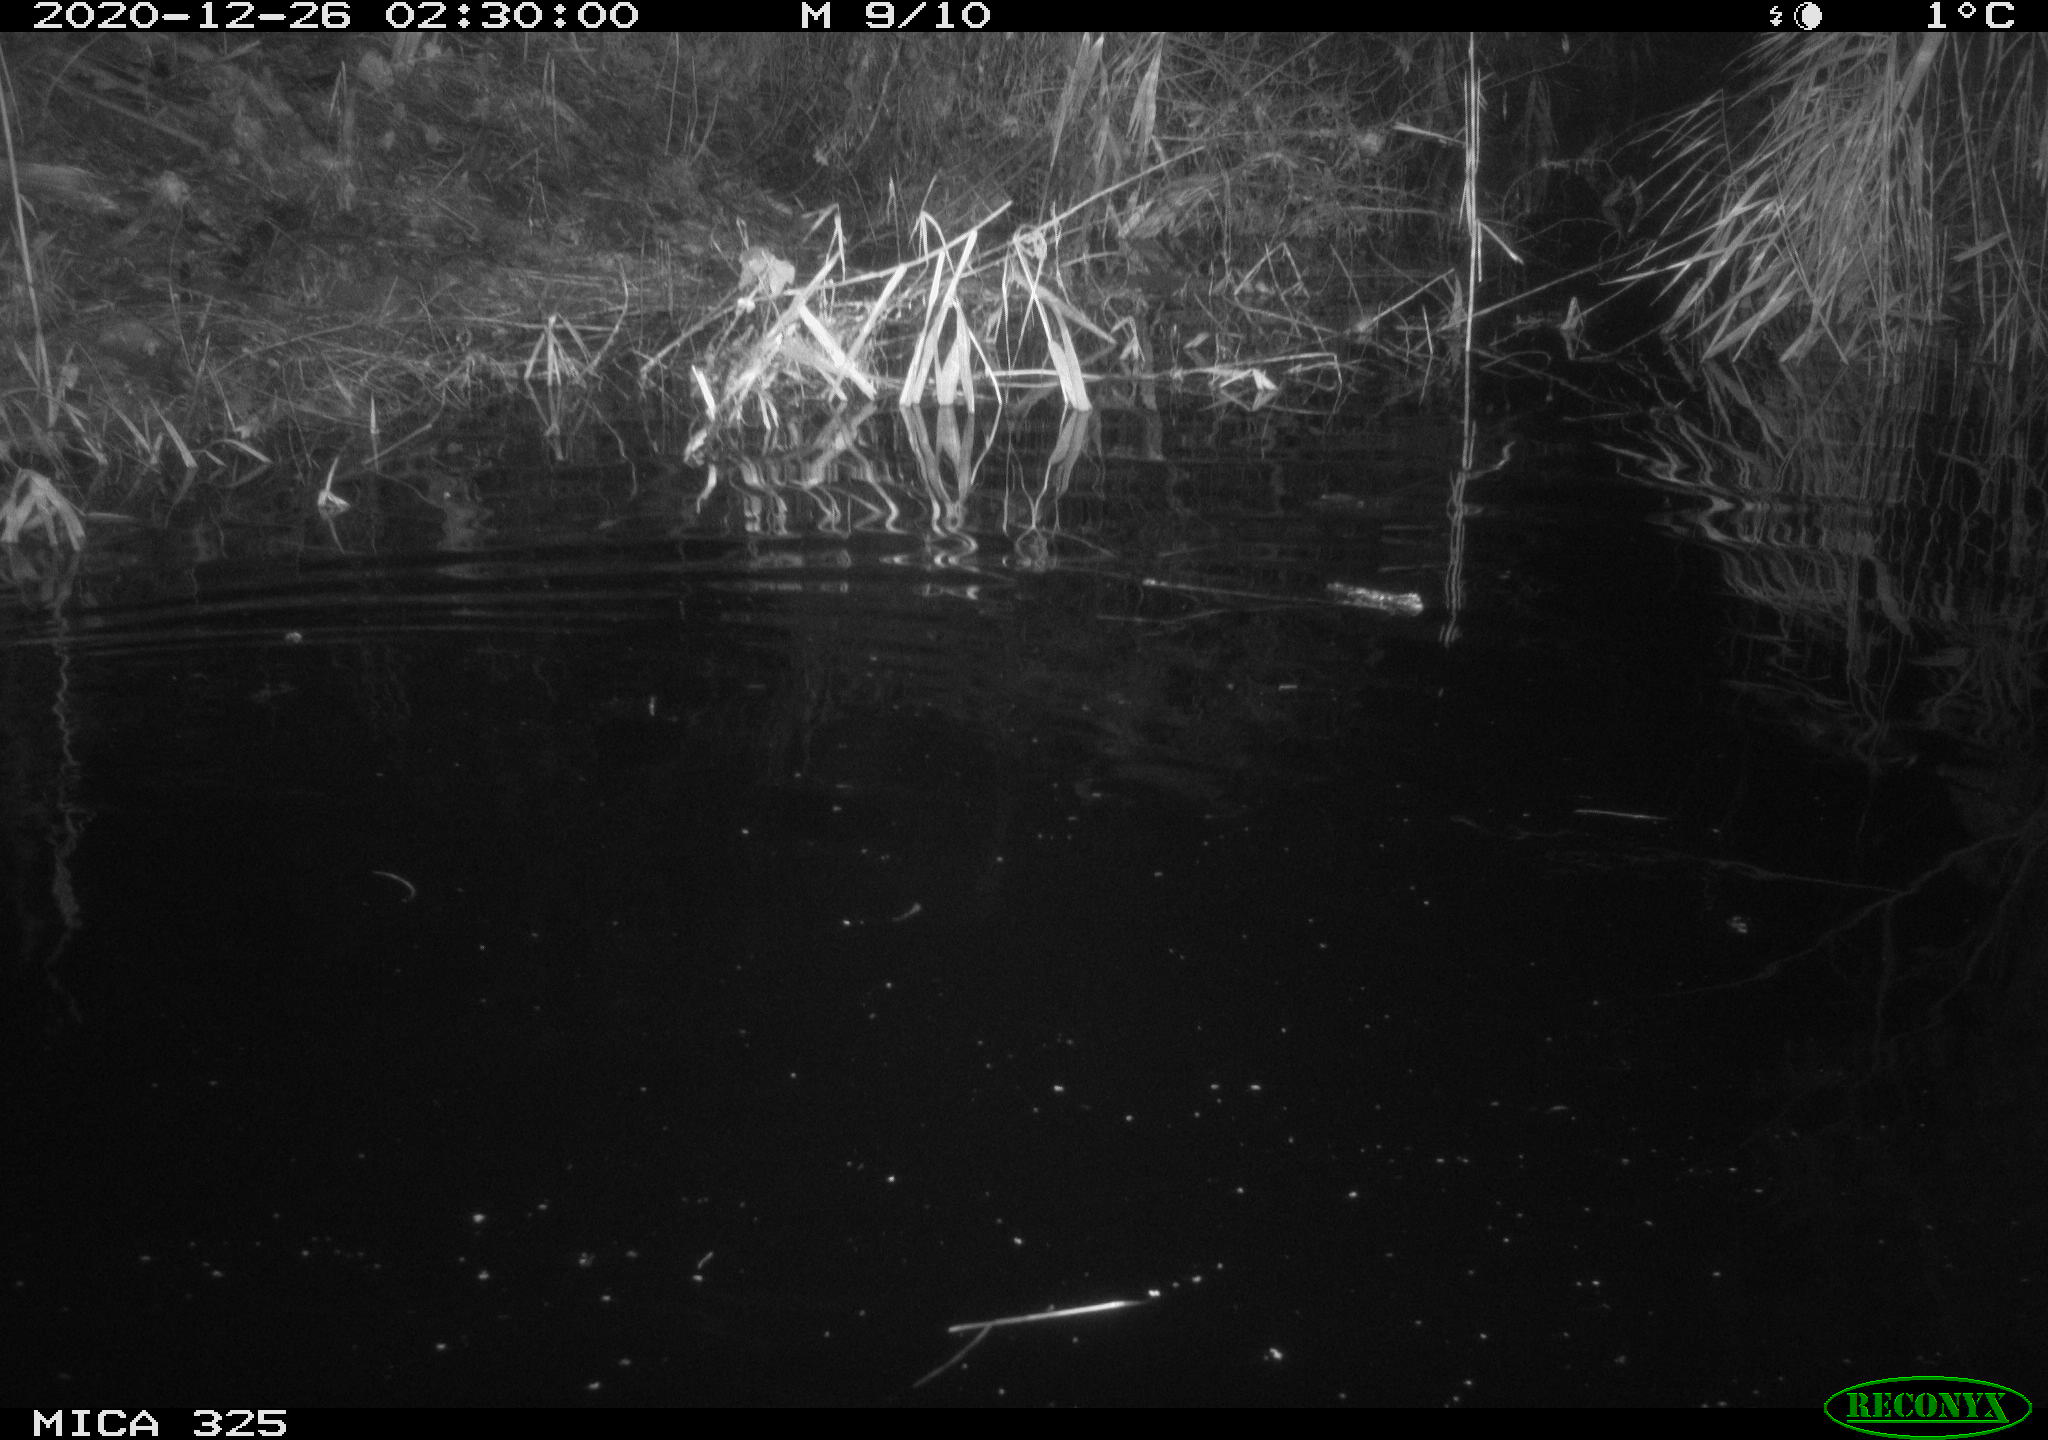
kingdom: Animalia
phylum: Chordata
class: Mammalia
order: Rodentia
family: Myocastoridae
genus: Myocastor
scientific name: Myocastor coypus
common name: Coypu
